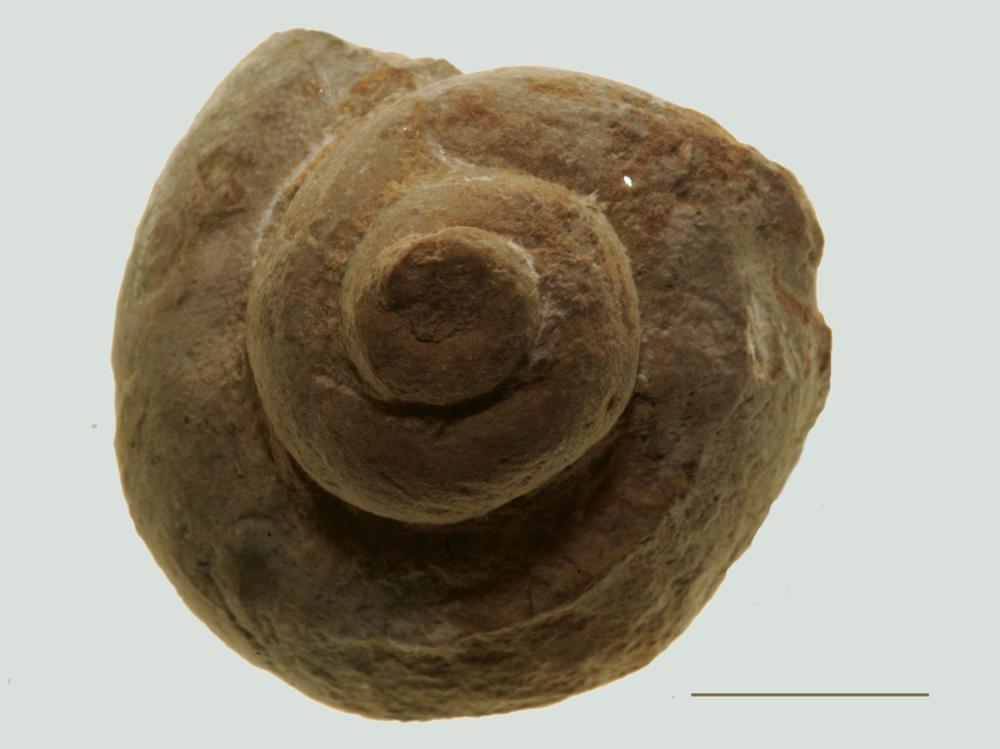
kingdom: Animalia
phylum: Mollusca
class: Gastropoda
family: Euomphalidae
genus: Euomphalus
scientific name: Euomphalus
